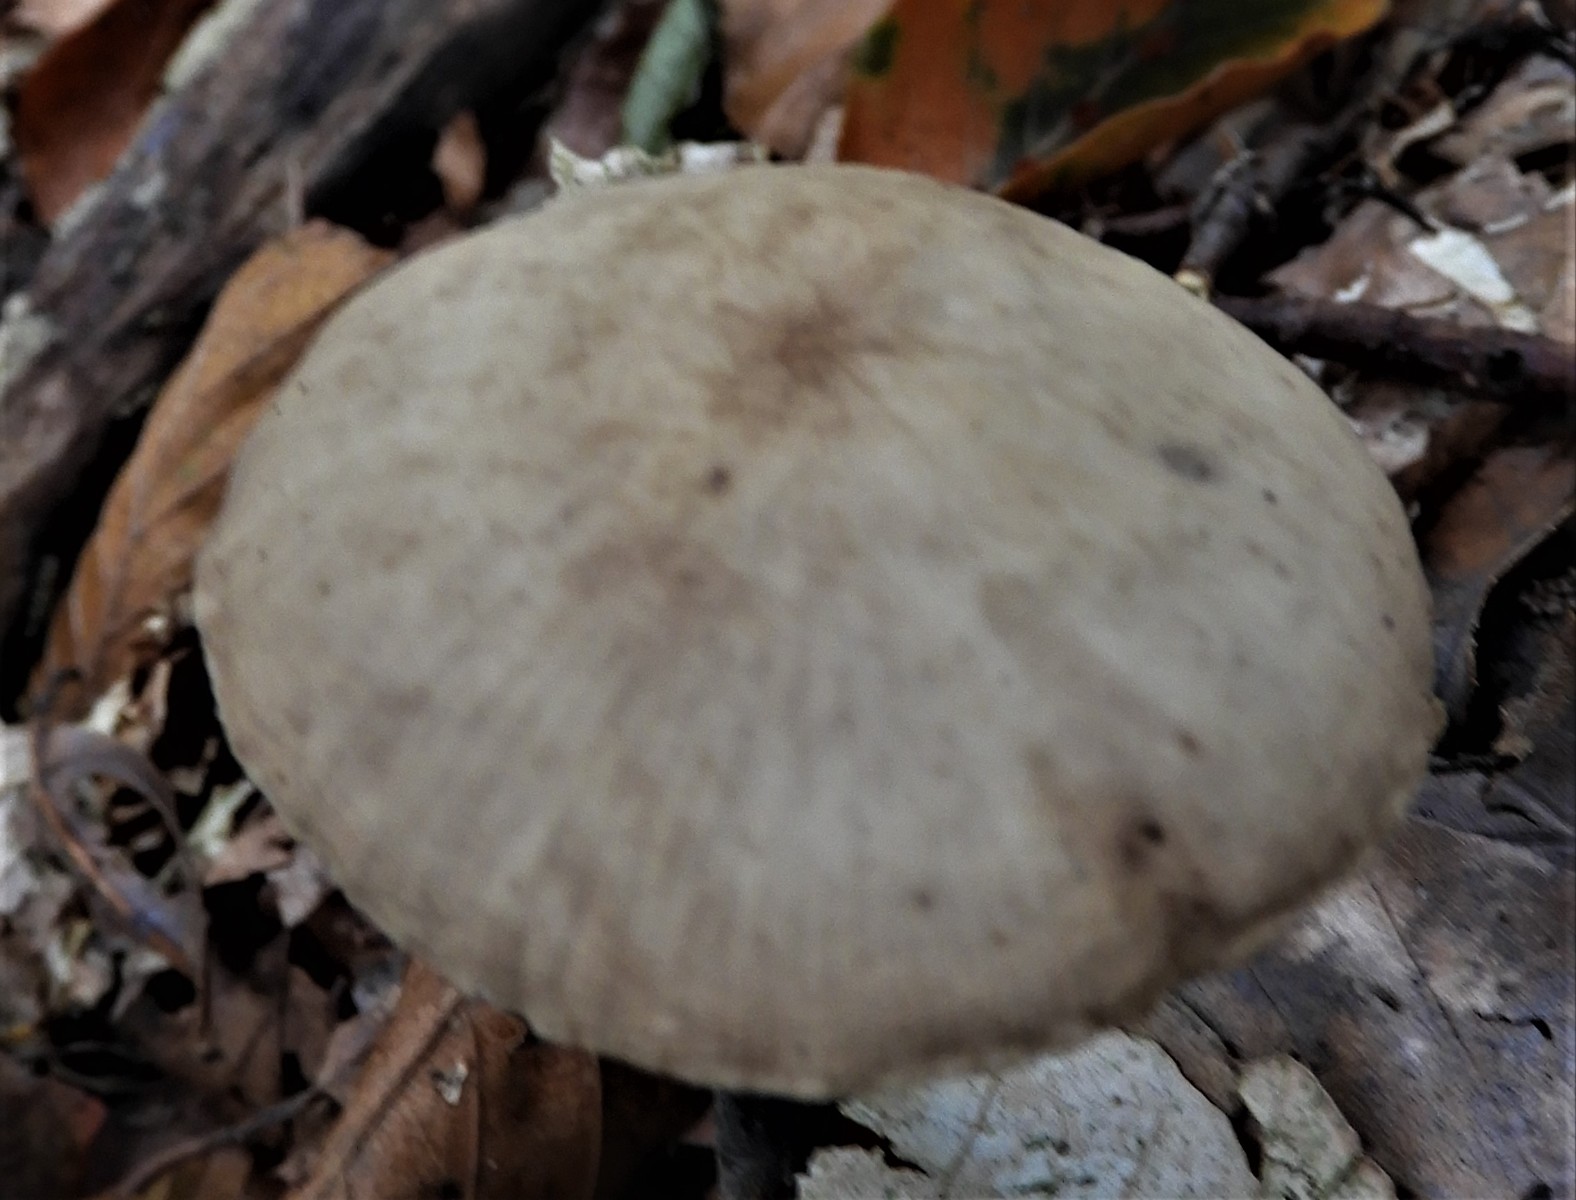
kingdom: Fungi
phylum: Basidiomycota
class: Agaricomycetes
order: Agaricales
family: Omphalotaceae
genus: Mycetinis
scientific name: Mycetinis alliaceus
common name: stor løghat
